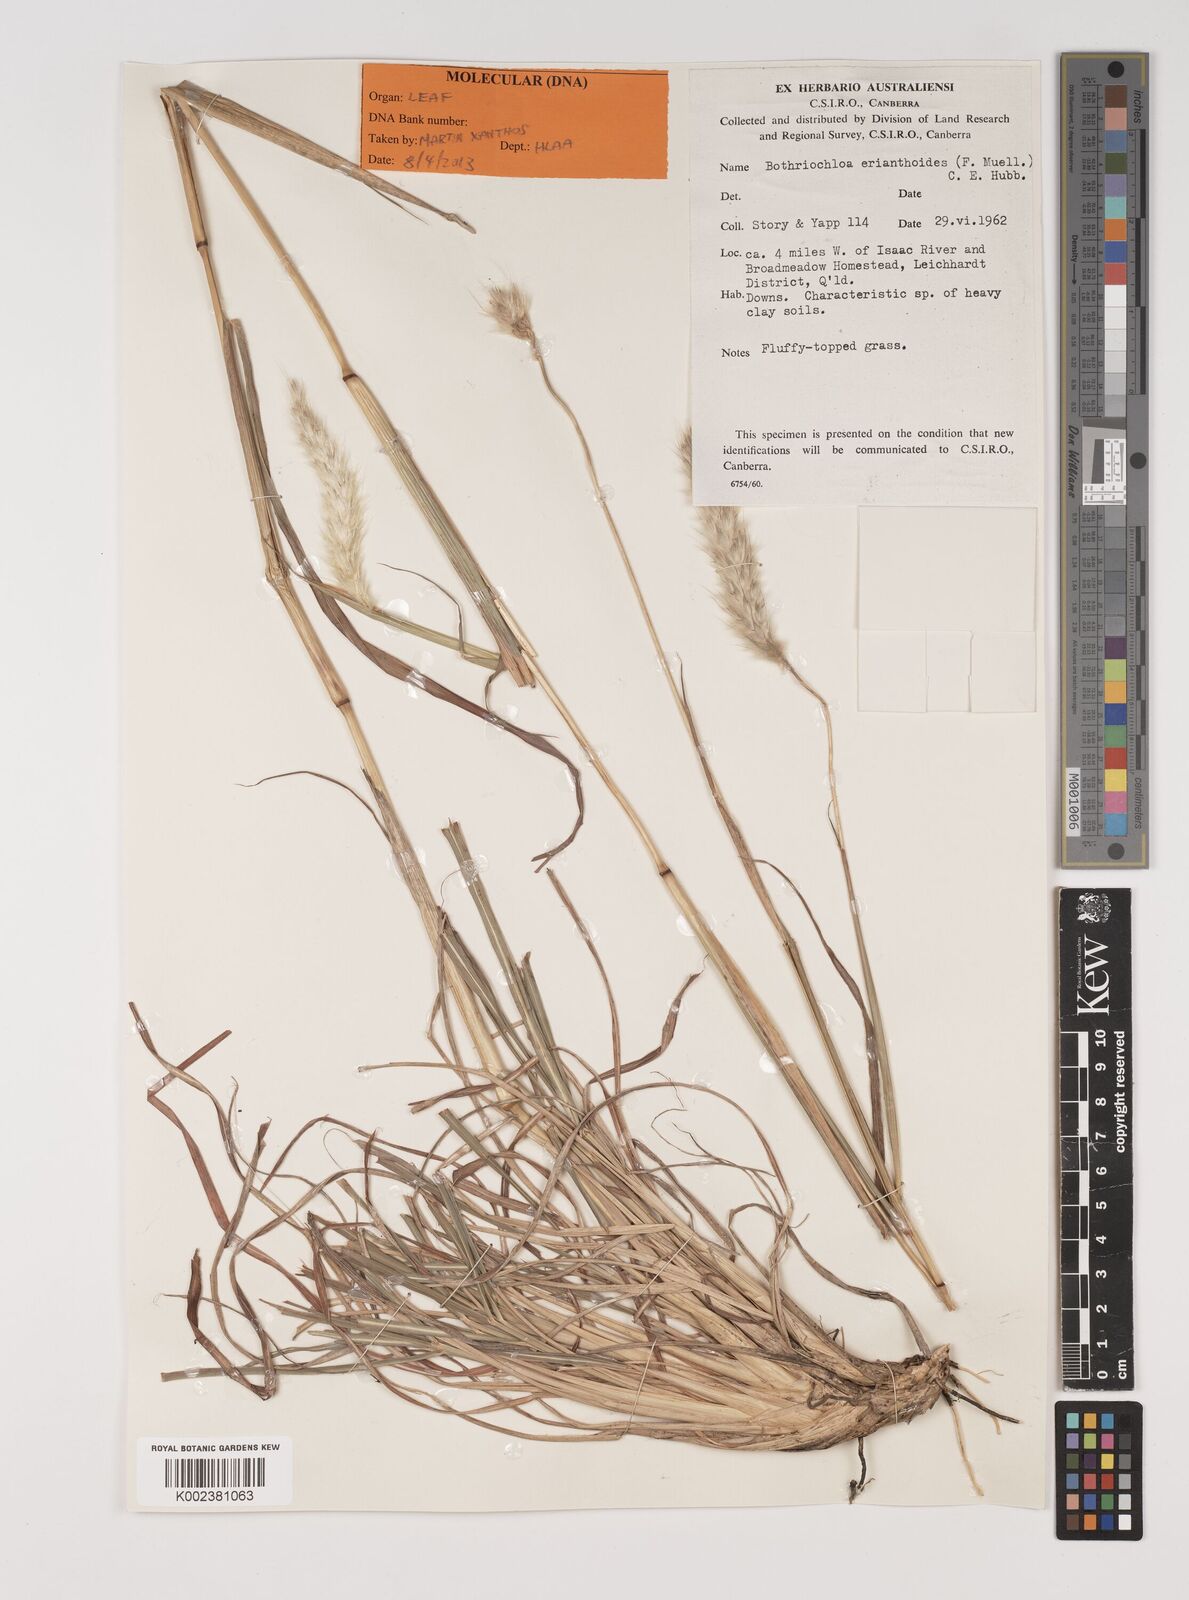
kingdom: Plantae
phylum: Tracheophyta
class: Liliopsida
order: Poales
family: Poaceae
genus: Bothriochloa
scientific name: Bothriochloa erianthoides
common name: Satin-top grass
